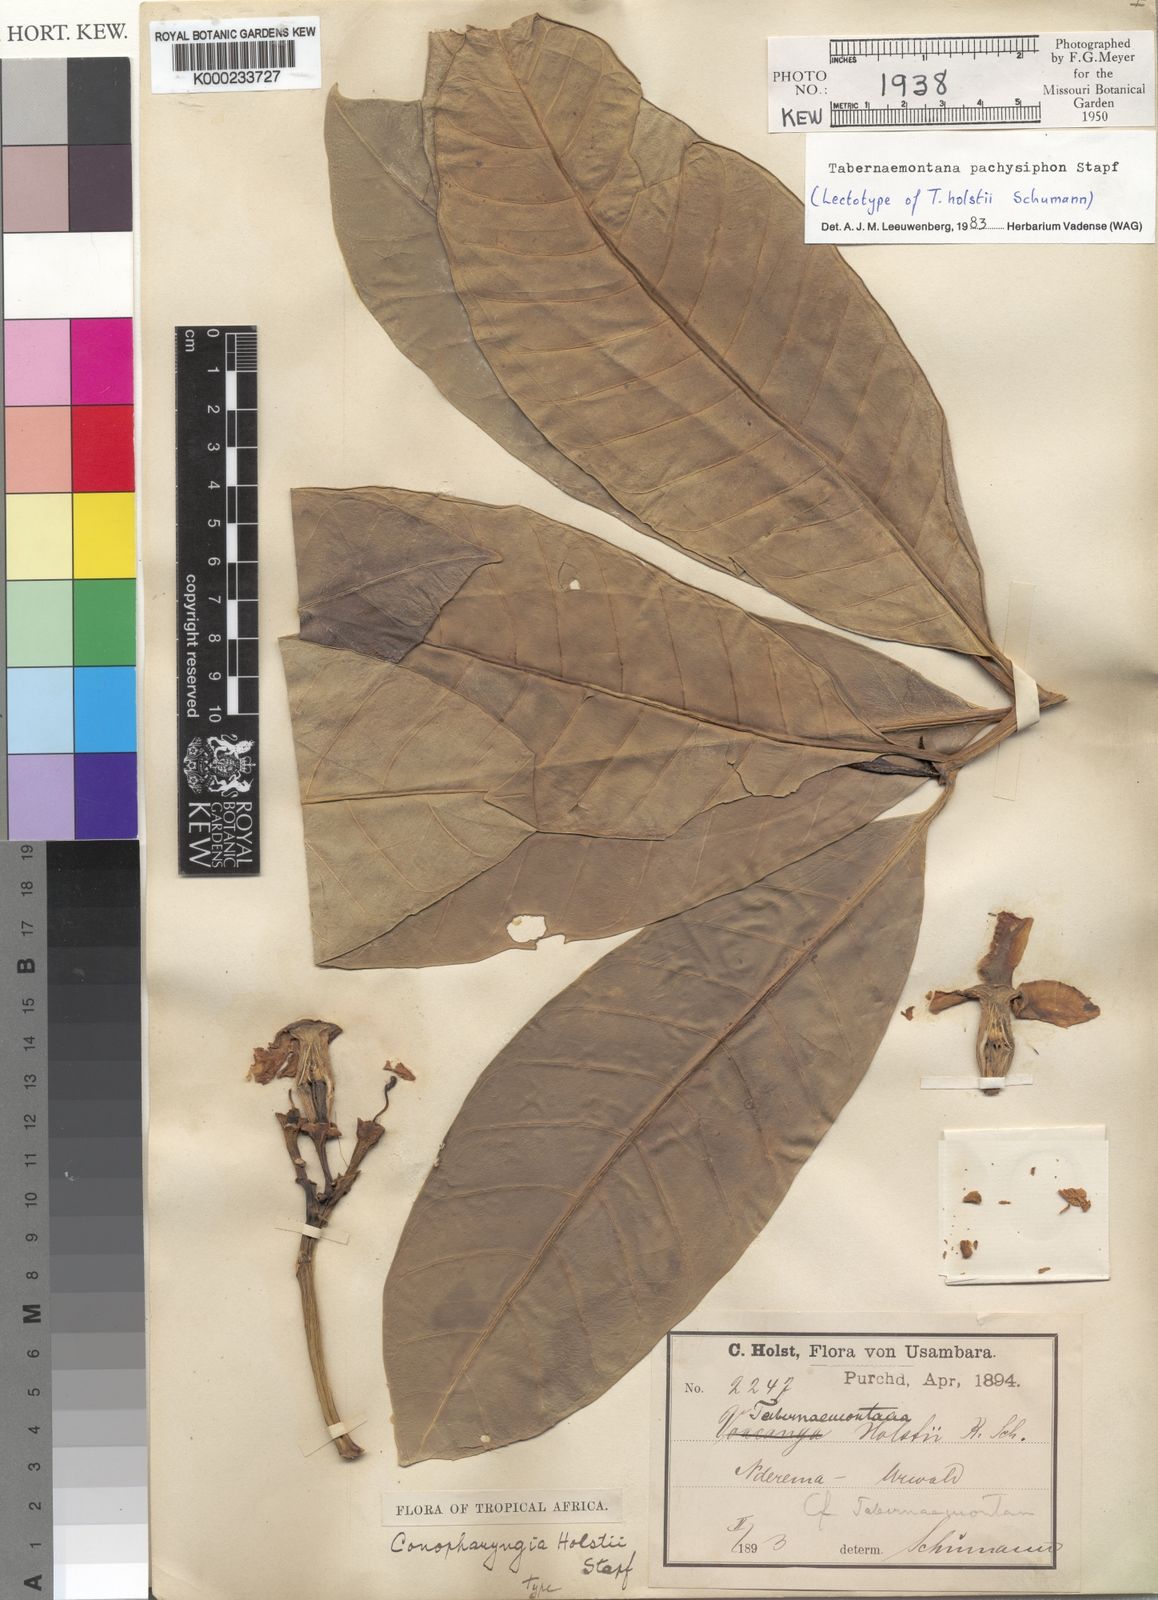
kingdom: Plantae
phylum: Tracheophyta
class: Magnoliopsida
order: Gentianales
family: Apocynaceae
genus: Tabernaemontana
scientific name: Tabernaemontana pachysiphon
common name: Giant pinwheel-flower
